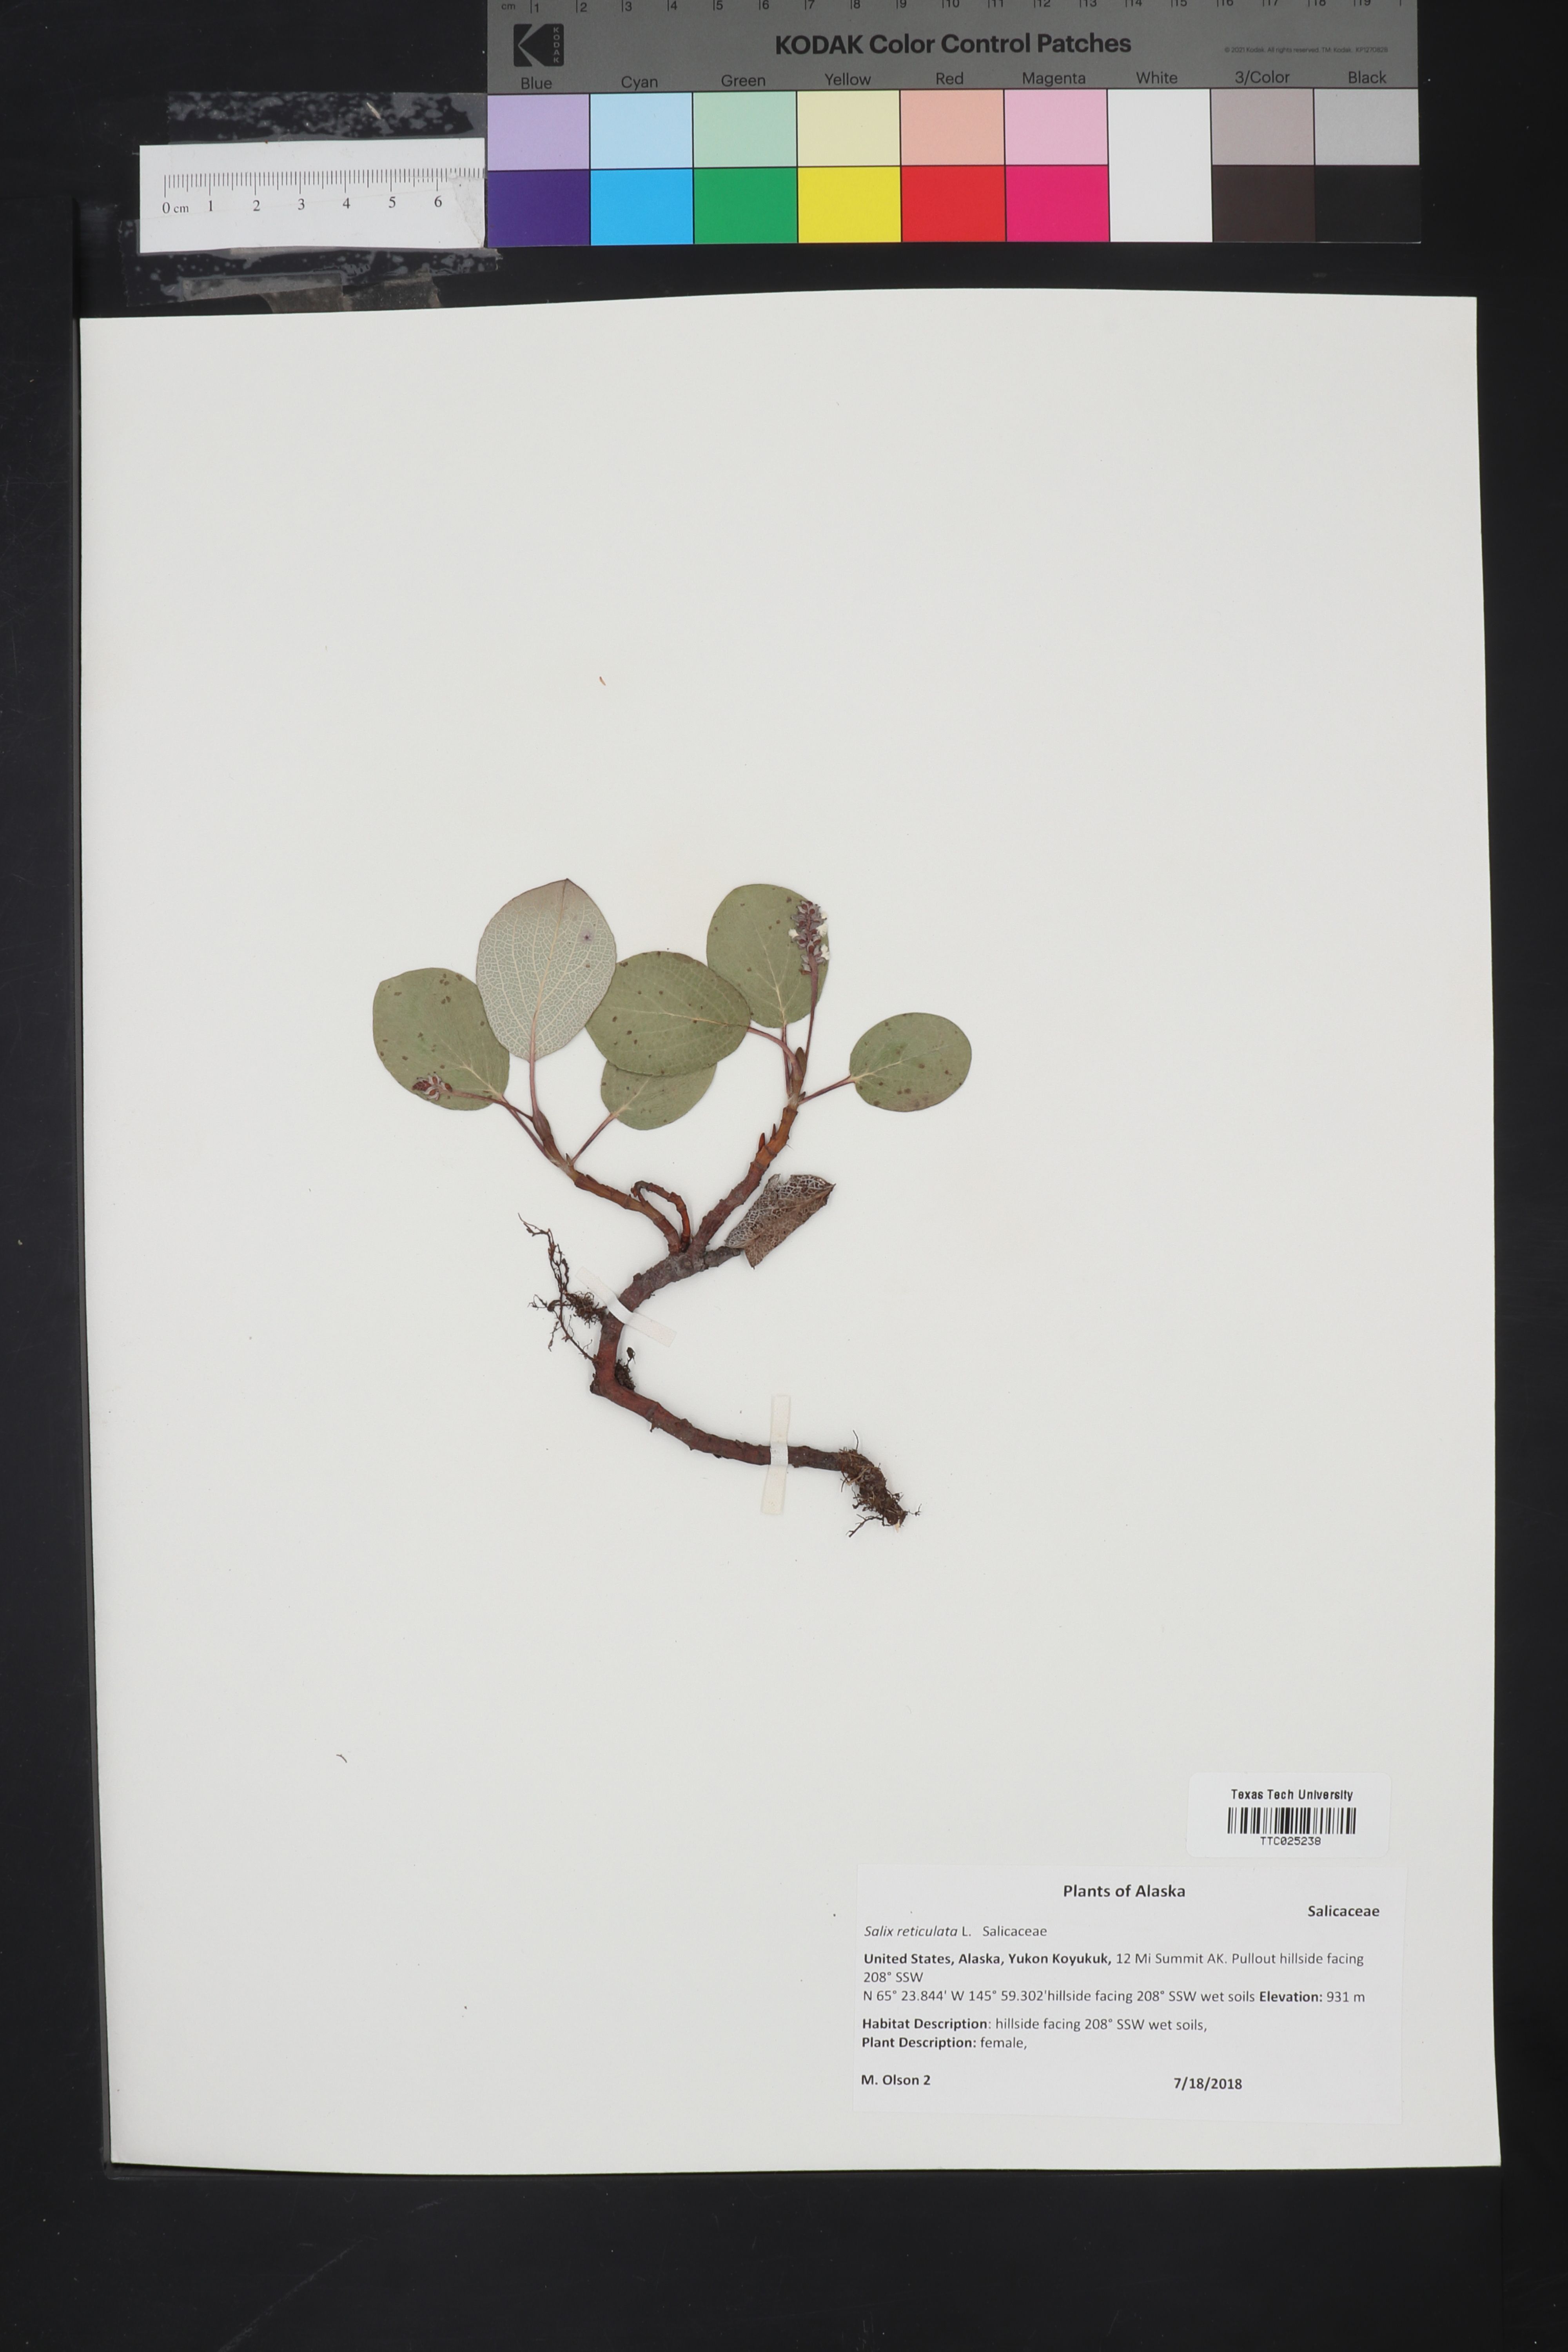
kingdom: Plantae
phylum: Tracheophyta
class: Magnoliopsida
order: Malpighiales
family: Salicaceae
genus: Salix
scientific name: Salix reticulata
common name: Net-leaved willow
